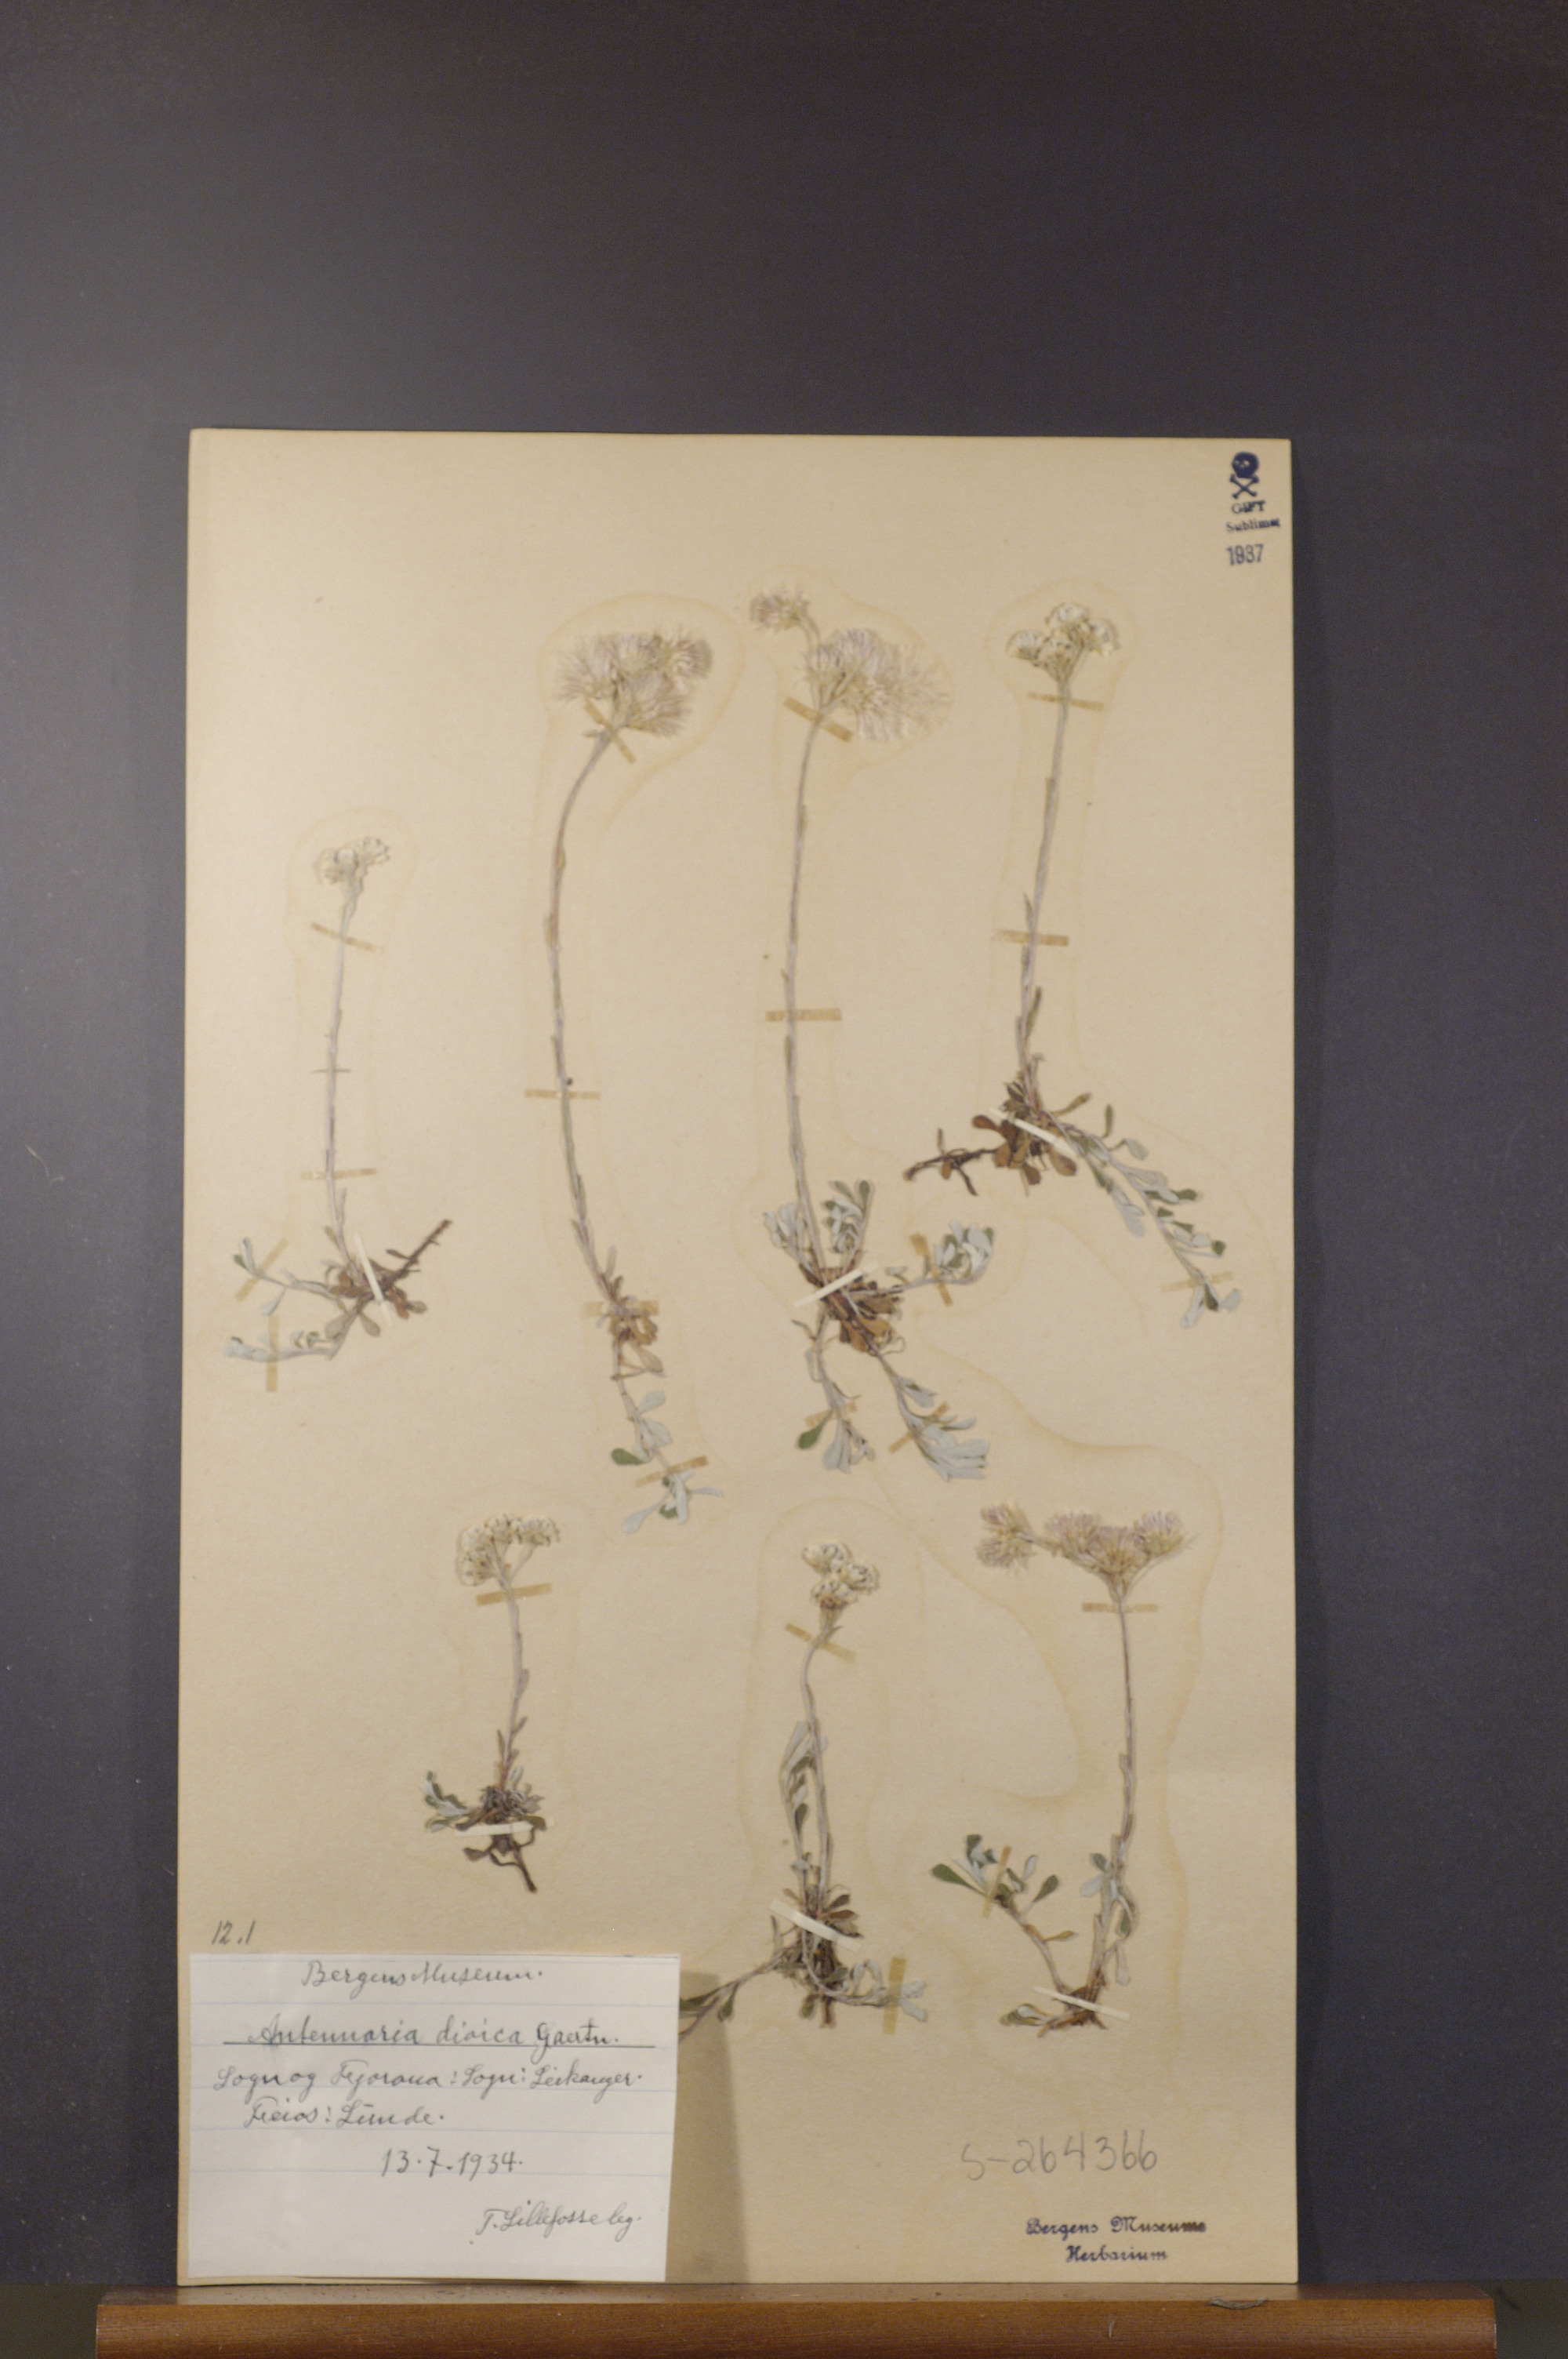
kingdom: Plantae
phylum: Tracheophyta
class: Magnoliopsida
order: Asterales
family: Asteraceae
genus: Antennaria
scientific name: Antennaria dioica
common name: Mountain everlasting
